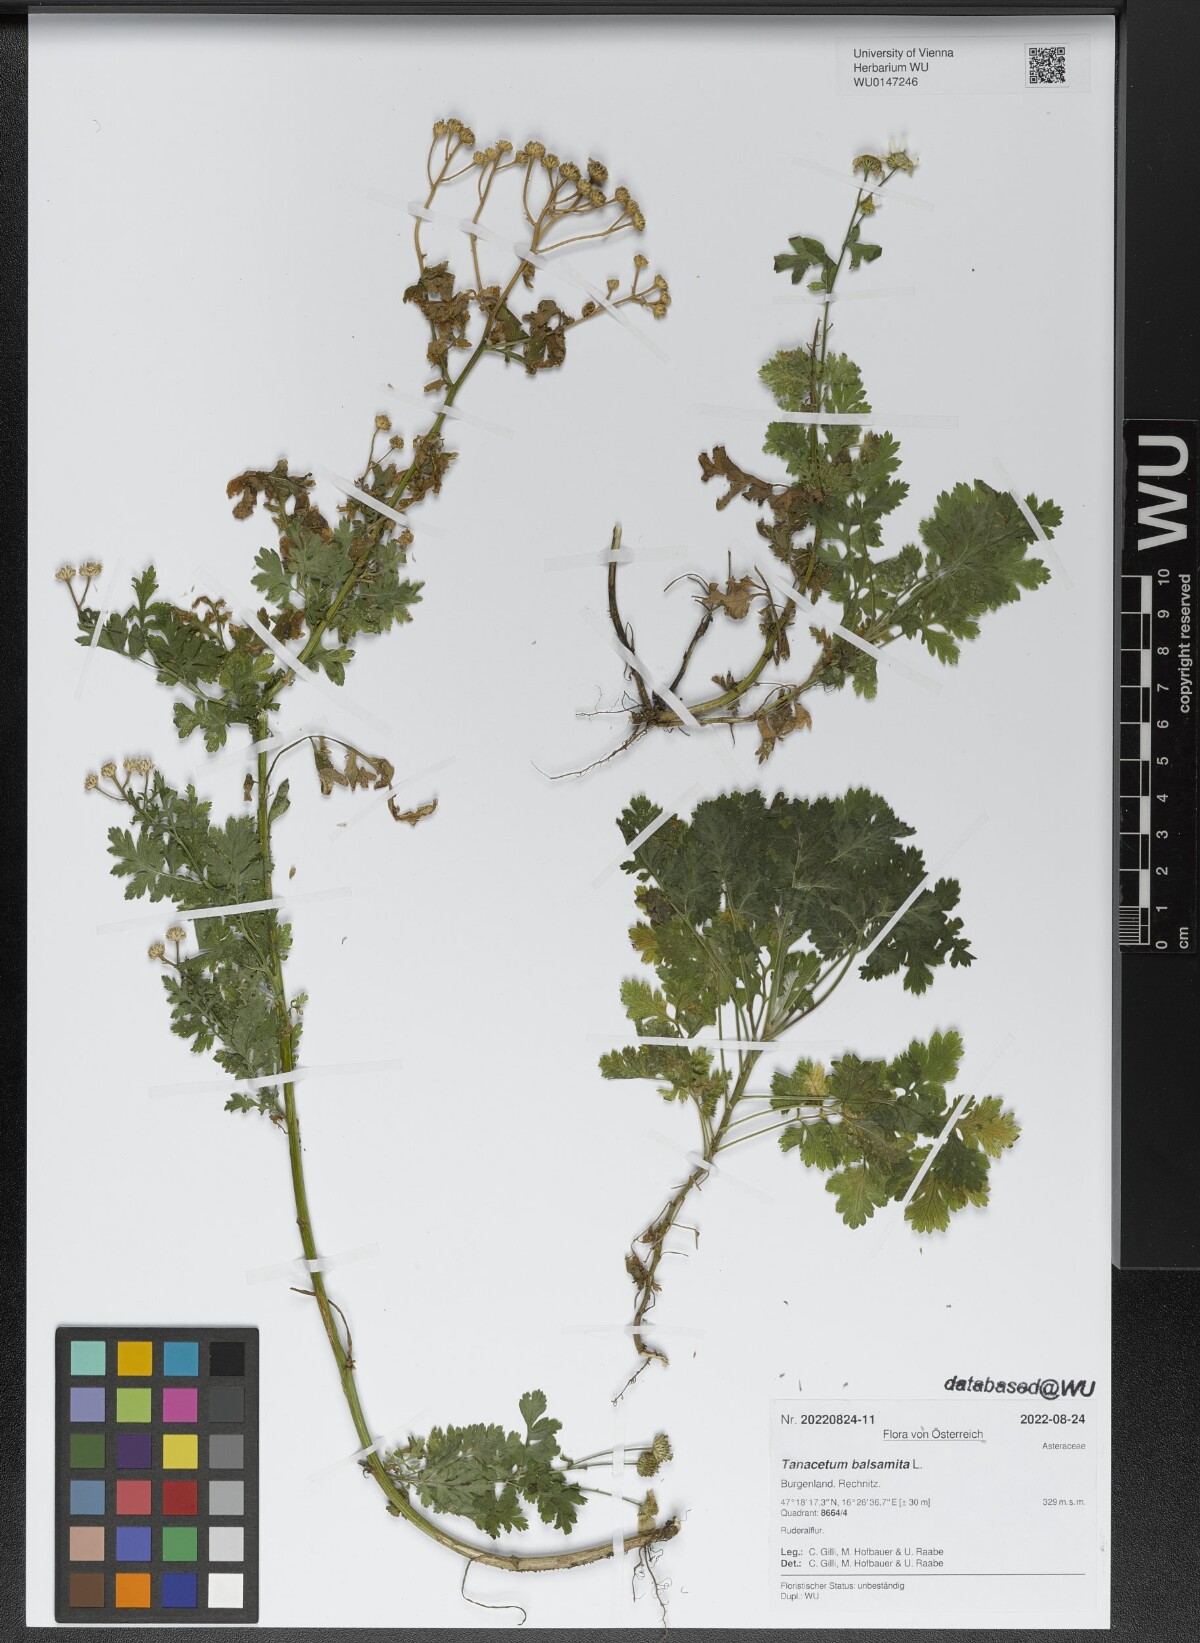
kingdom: Plantae
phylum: Tracheophyta
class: Magnoliopsida
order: Asterales
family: Asteraceae
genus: Tanacetum
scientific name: Tanacetum balsamita
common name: Costmary
